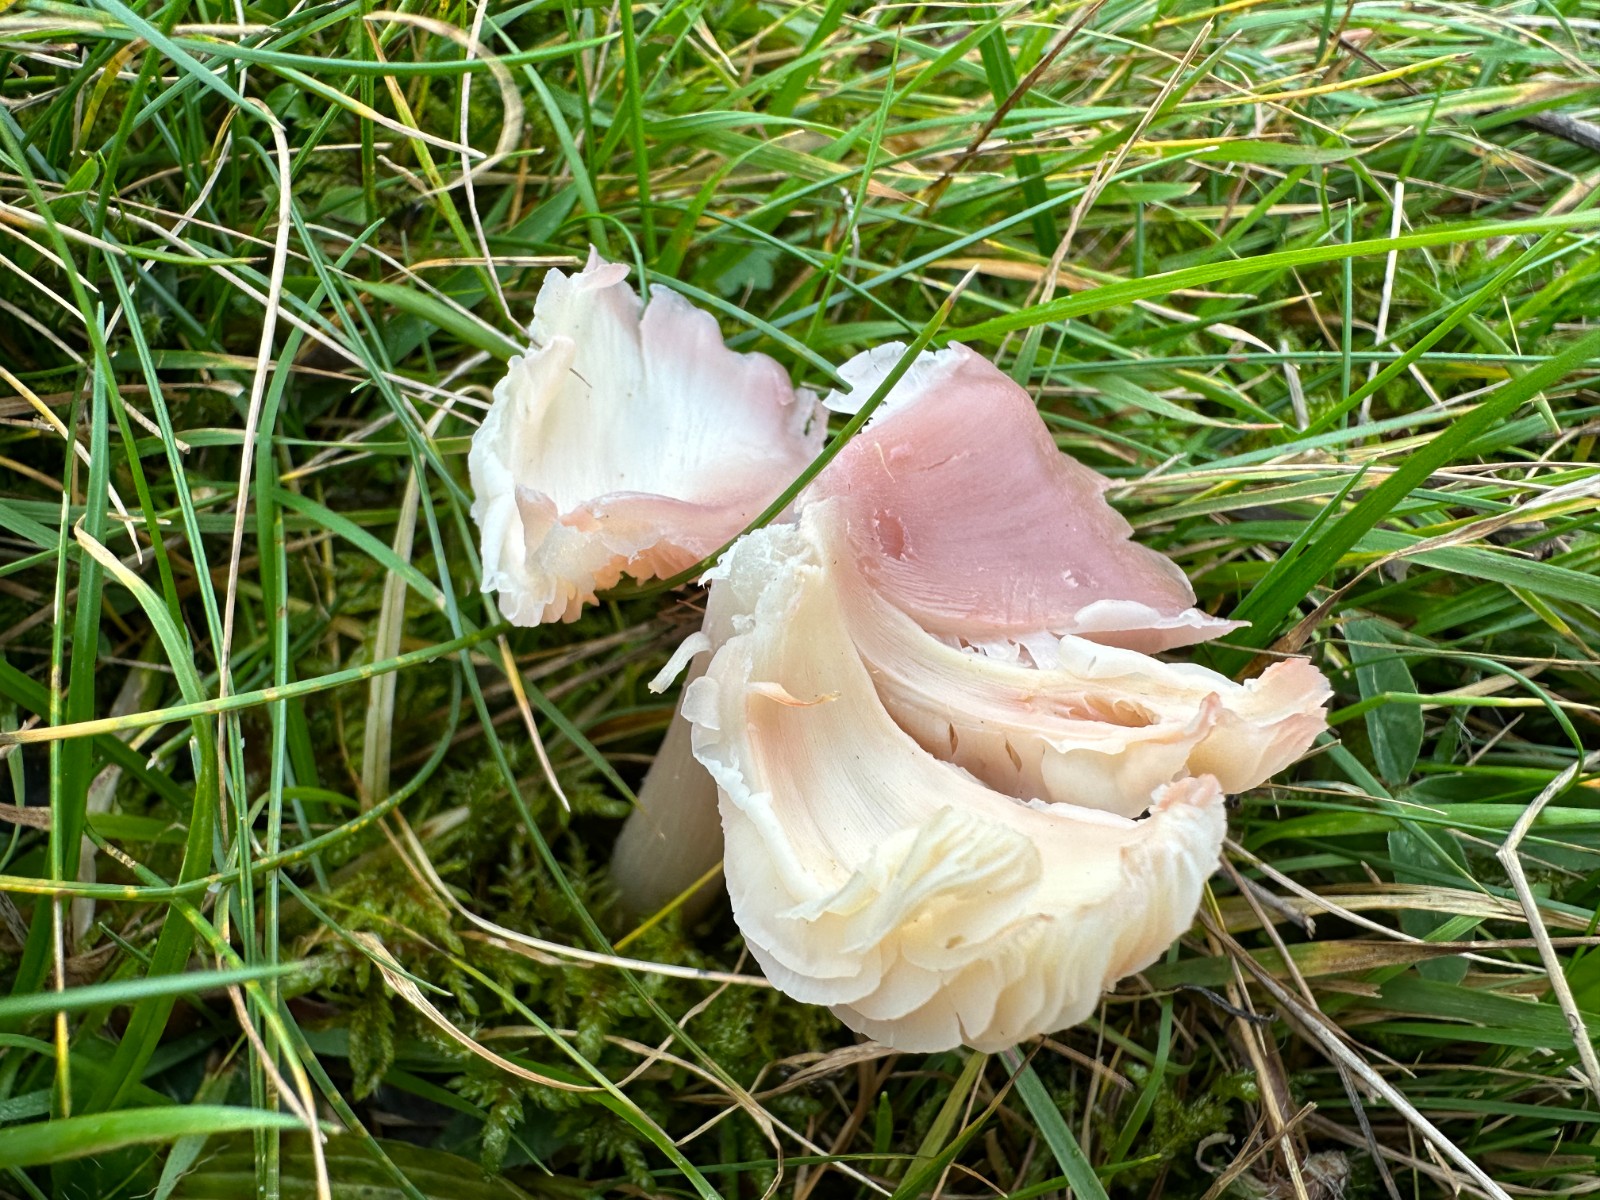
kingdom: Fungi
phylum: Basidiomycota
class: Agaricomycetes
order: Agaricales
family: Hygrophoraceae
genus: Porpolomopsis
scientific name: Porpolomopsis calyptriformis
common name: rosenrød vokshat
